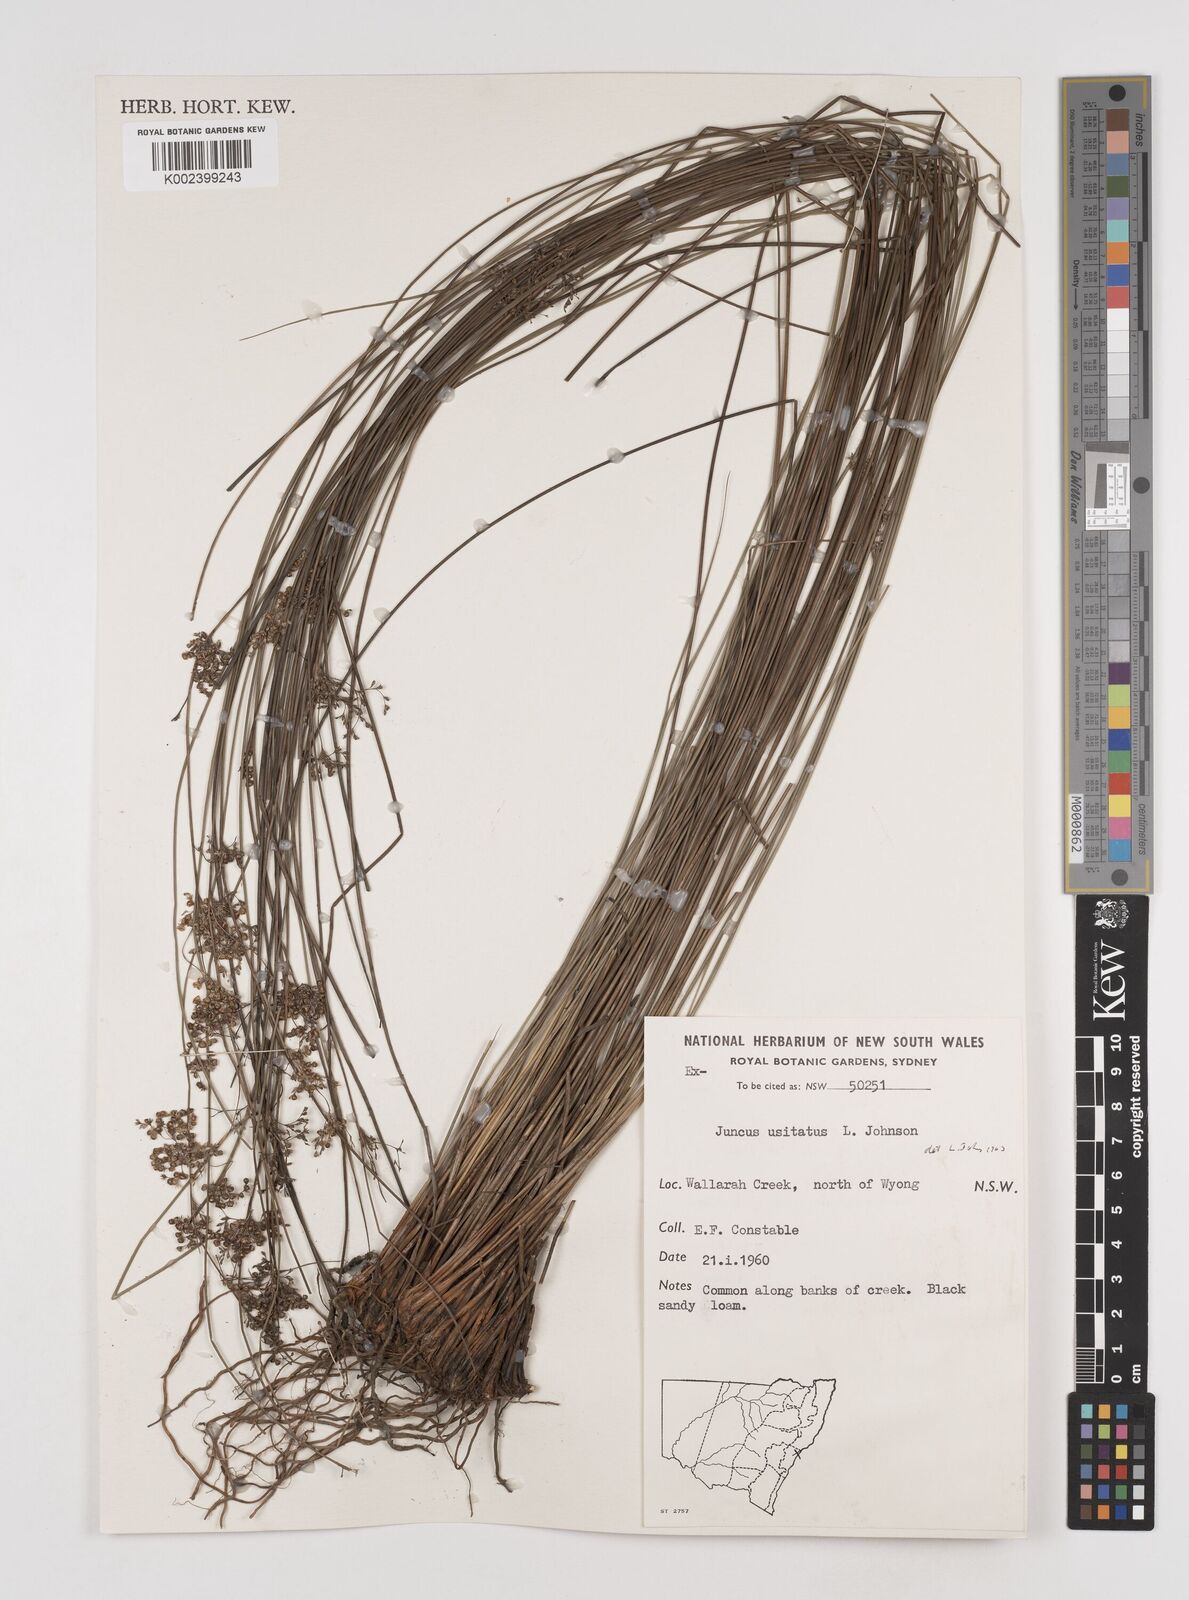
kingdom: Plantae
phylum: Tracheophyta
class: Liliopsida
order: Poales
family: Juncaceae
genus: Juncus
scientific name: Juncus usitatus
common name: Rush
